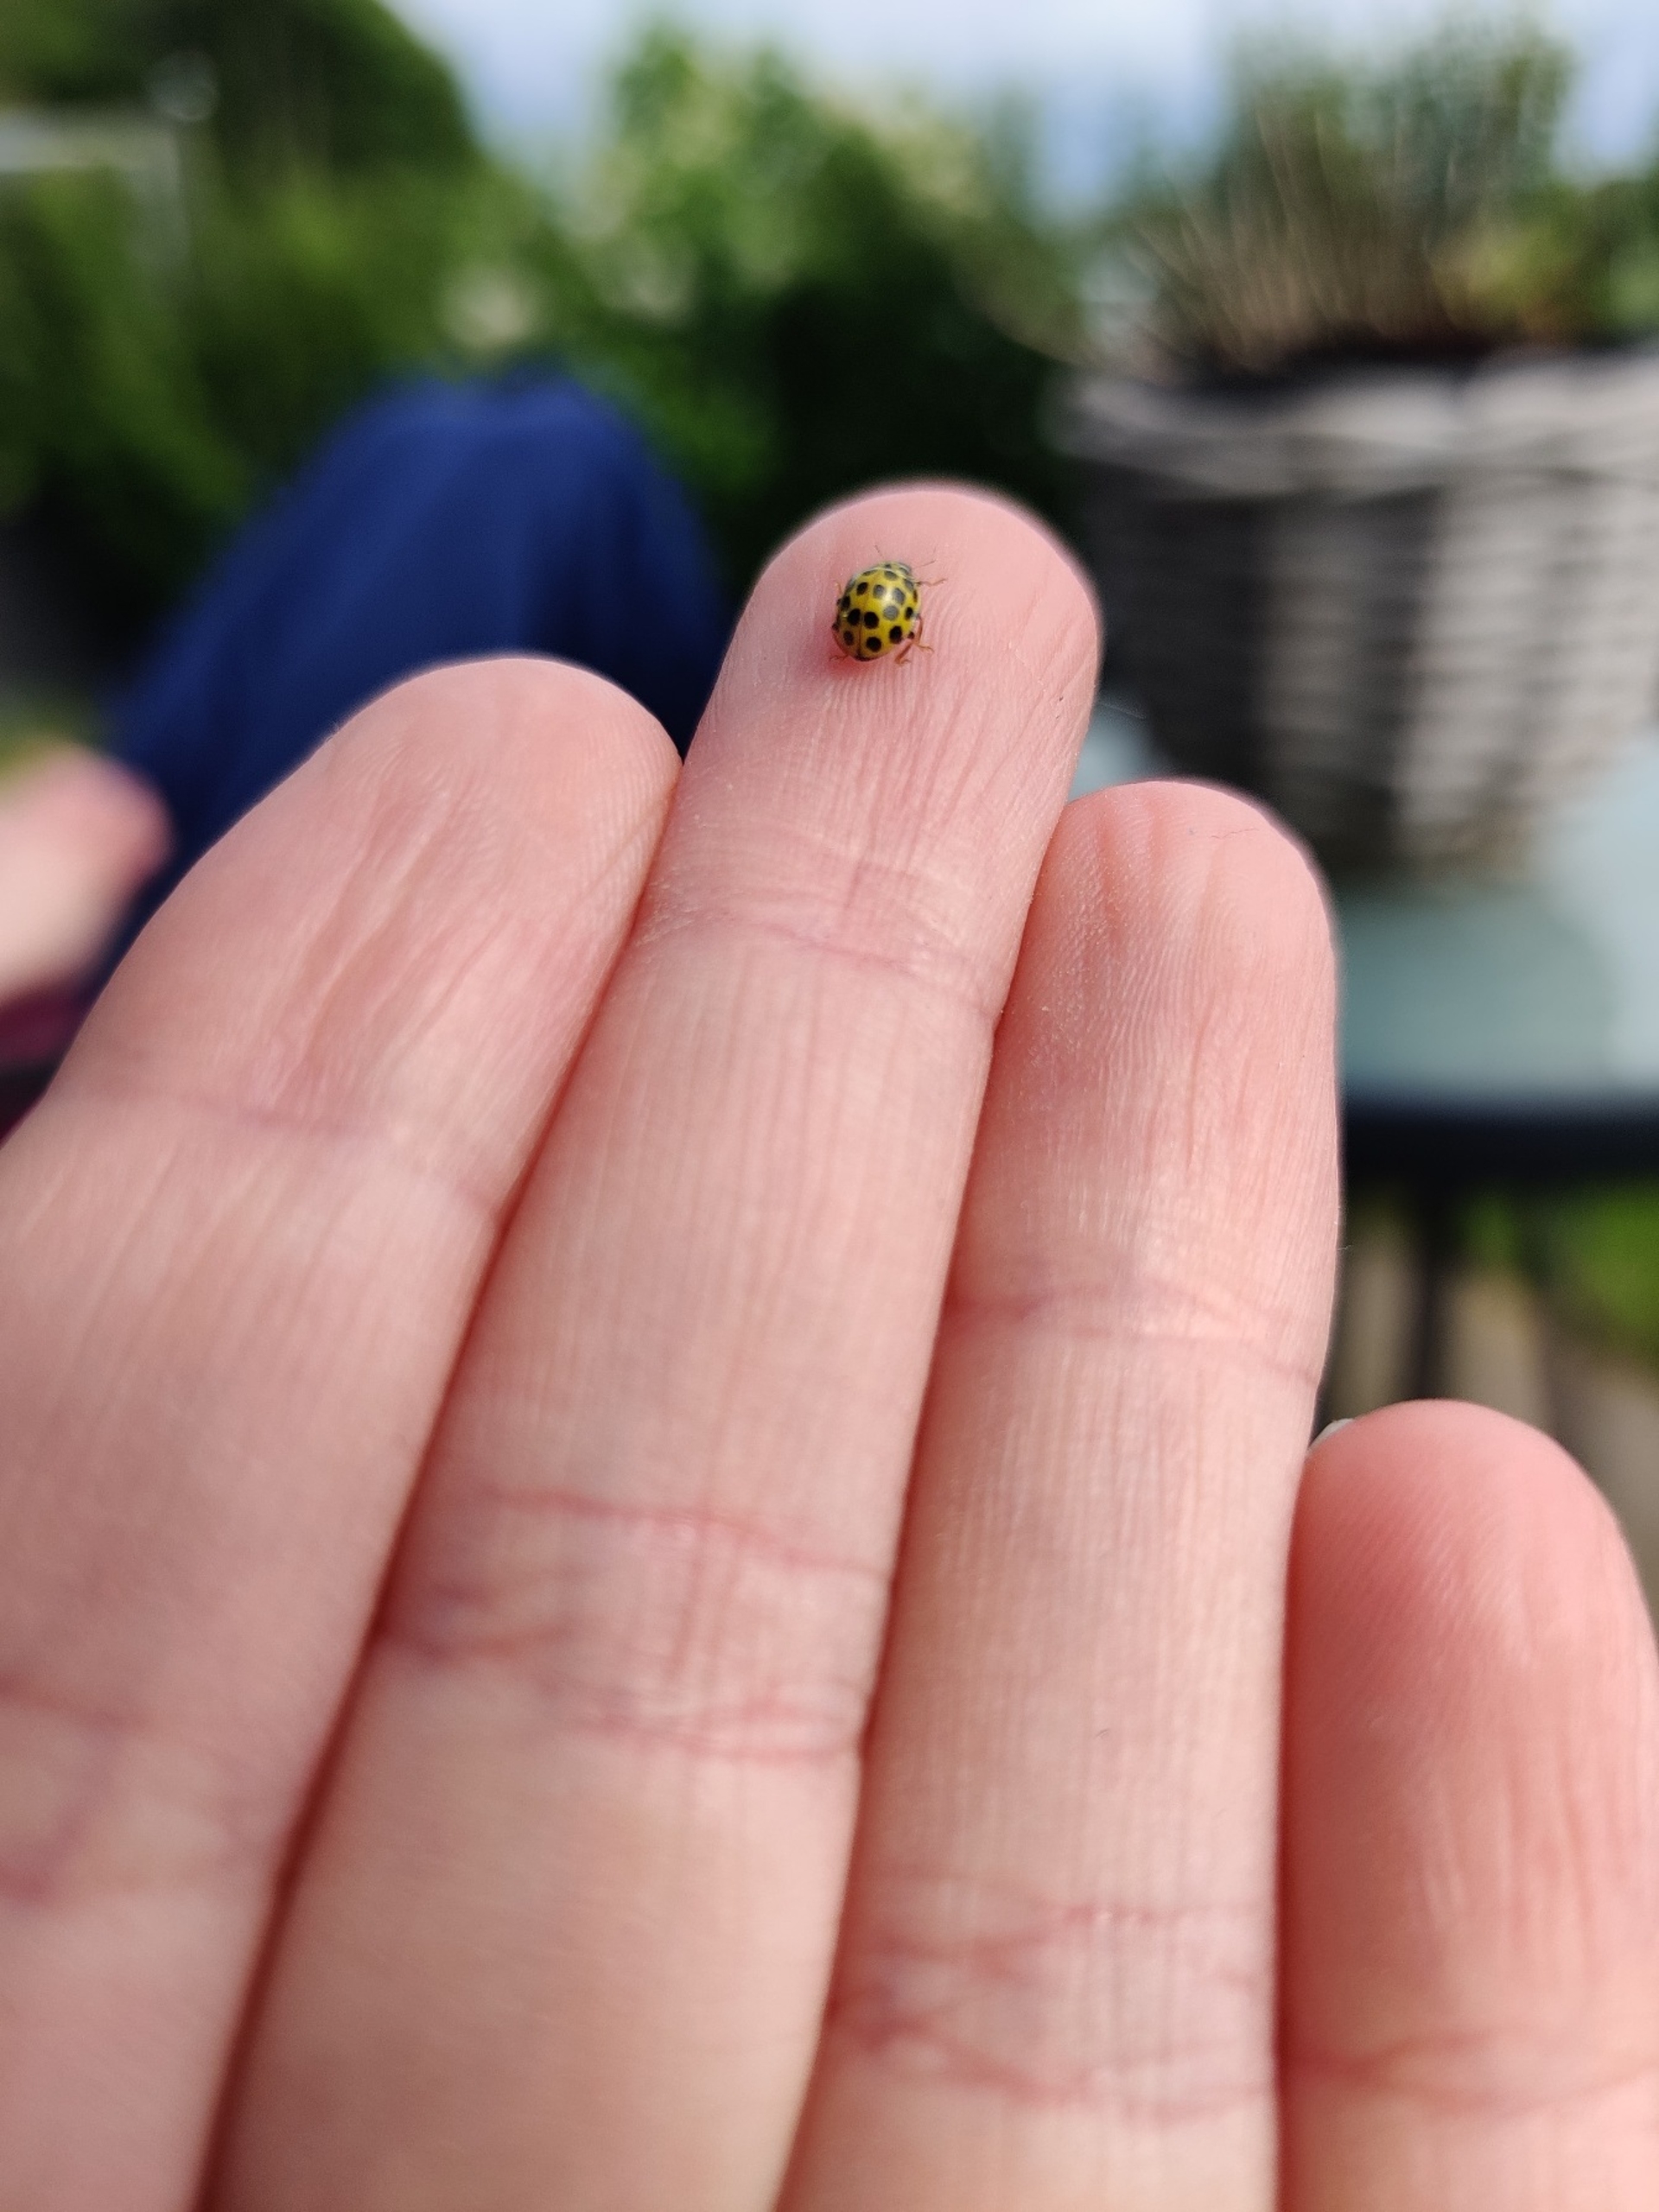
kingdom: Animalia
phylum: Arthropoda
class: Insecta
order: Coleoptera
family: Coccinellidae
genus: Psyllobora
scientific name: Psyllobora vigintiduopunctata
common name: Toogtyveplettet mariehøne
